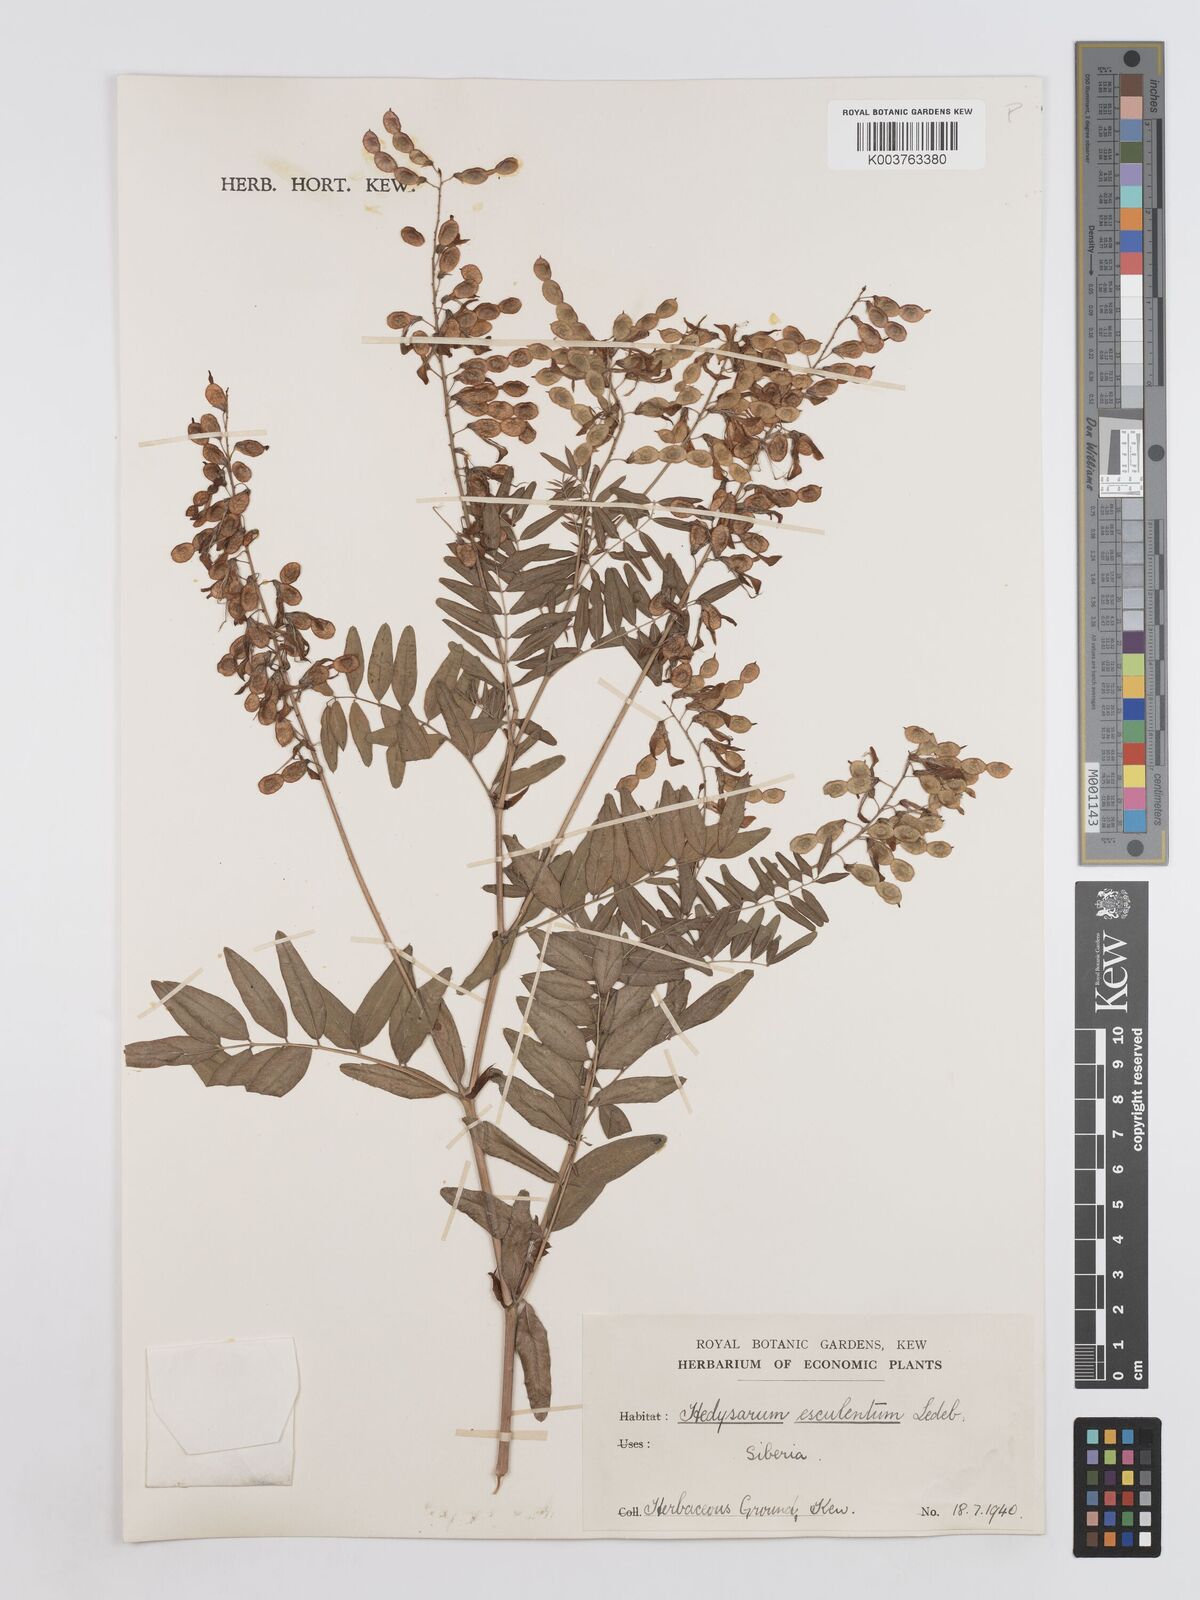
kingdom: Plantae
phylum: Tracheophyta
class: Magnoliopsida
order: Fabales
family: Fabaceae
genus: Hedysarum
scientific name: Hedysarum vicioides
